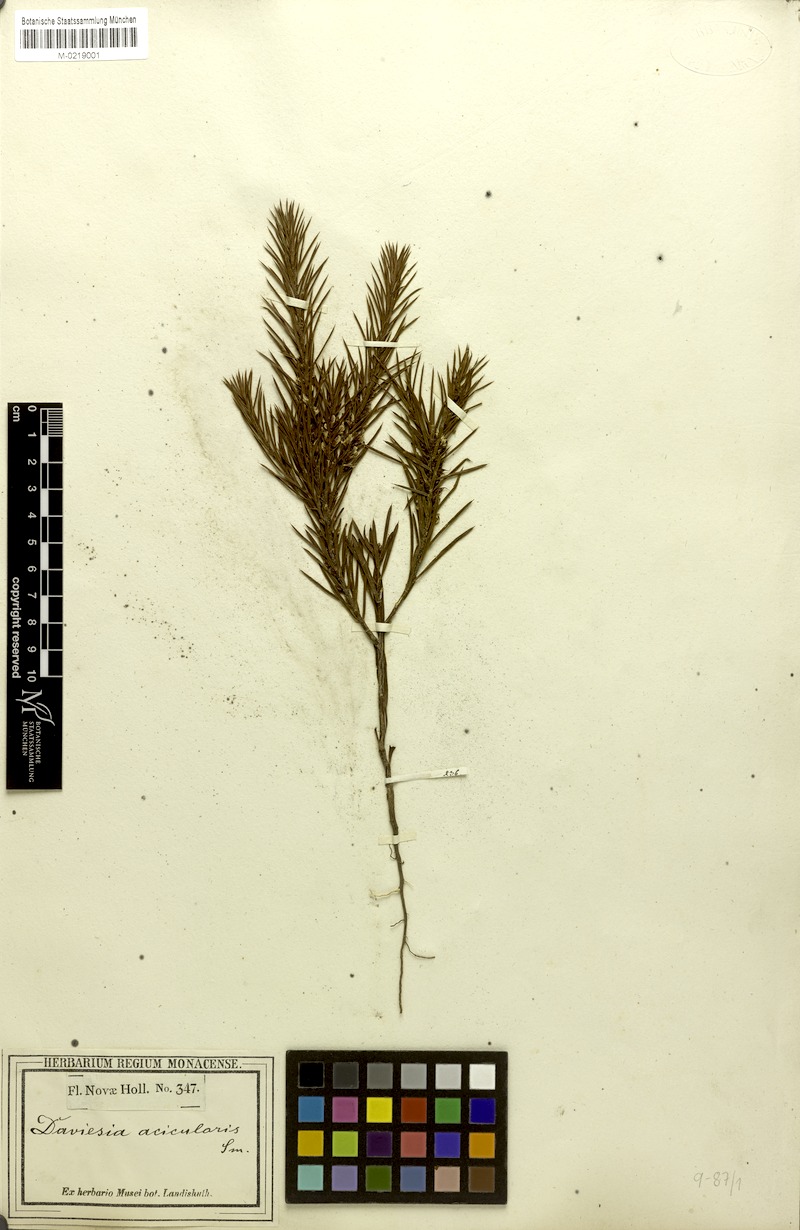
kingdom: Plantae
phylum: Tracheophyta
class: Magnoliopsida
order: Fabales
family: Fabaceae
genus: Daviesia
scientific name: Daviesia acicularis
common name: Sandplain bitter-pea
